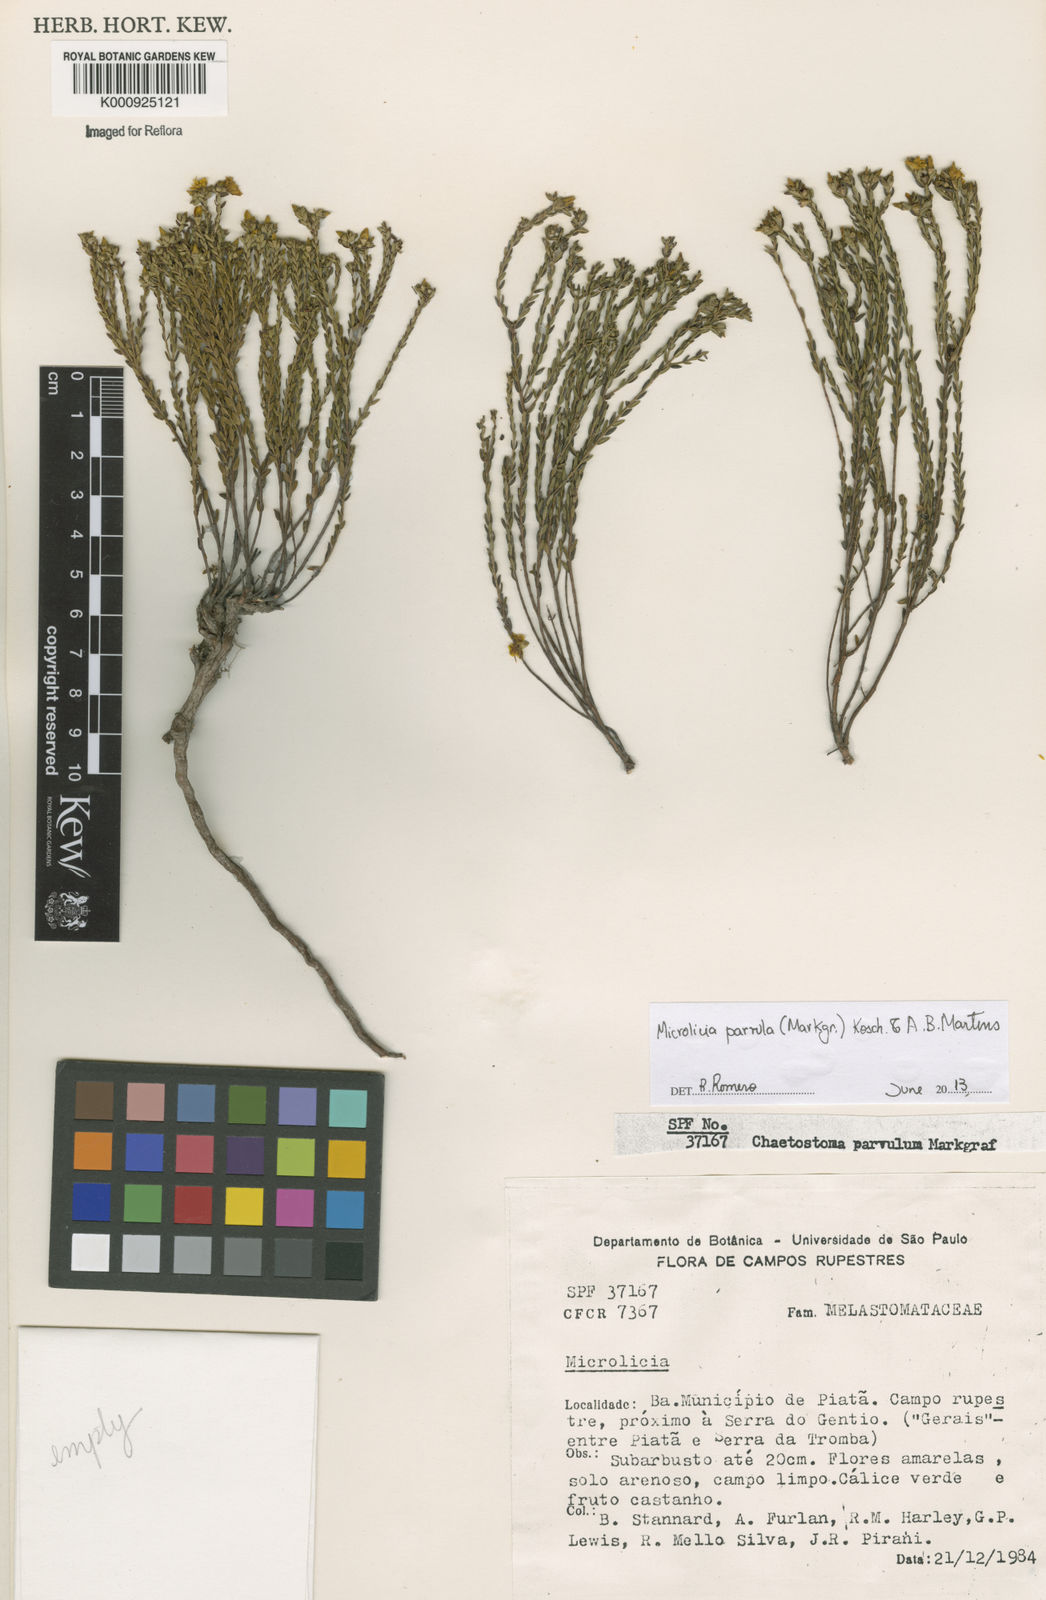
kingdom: Plantae
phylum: Tracheophyta
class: Magnoliopsida
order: Myrtales
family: Melastomataceae
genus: Microlicia
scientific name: Microlicia parvula
